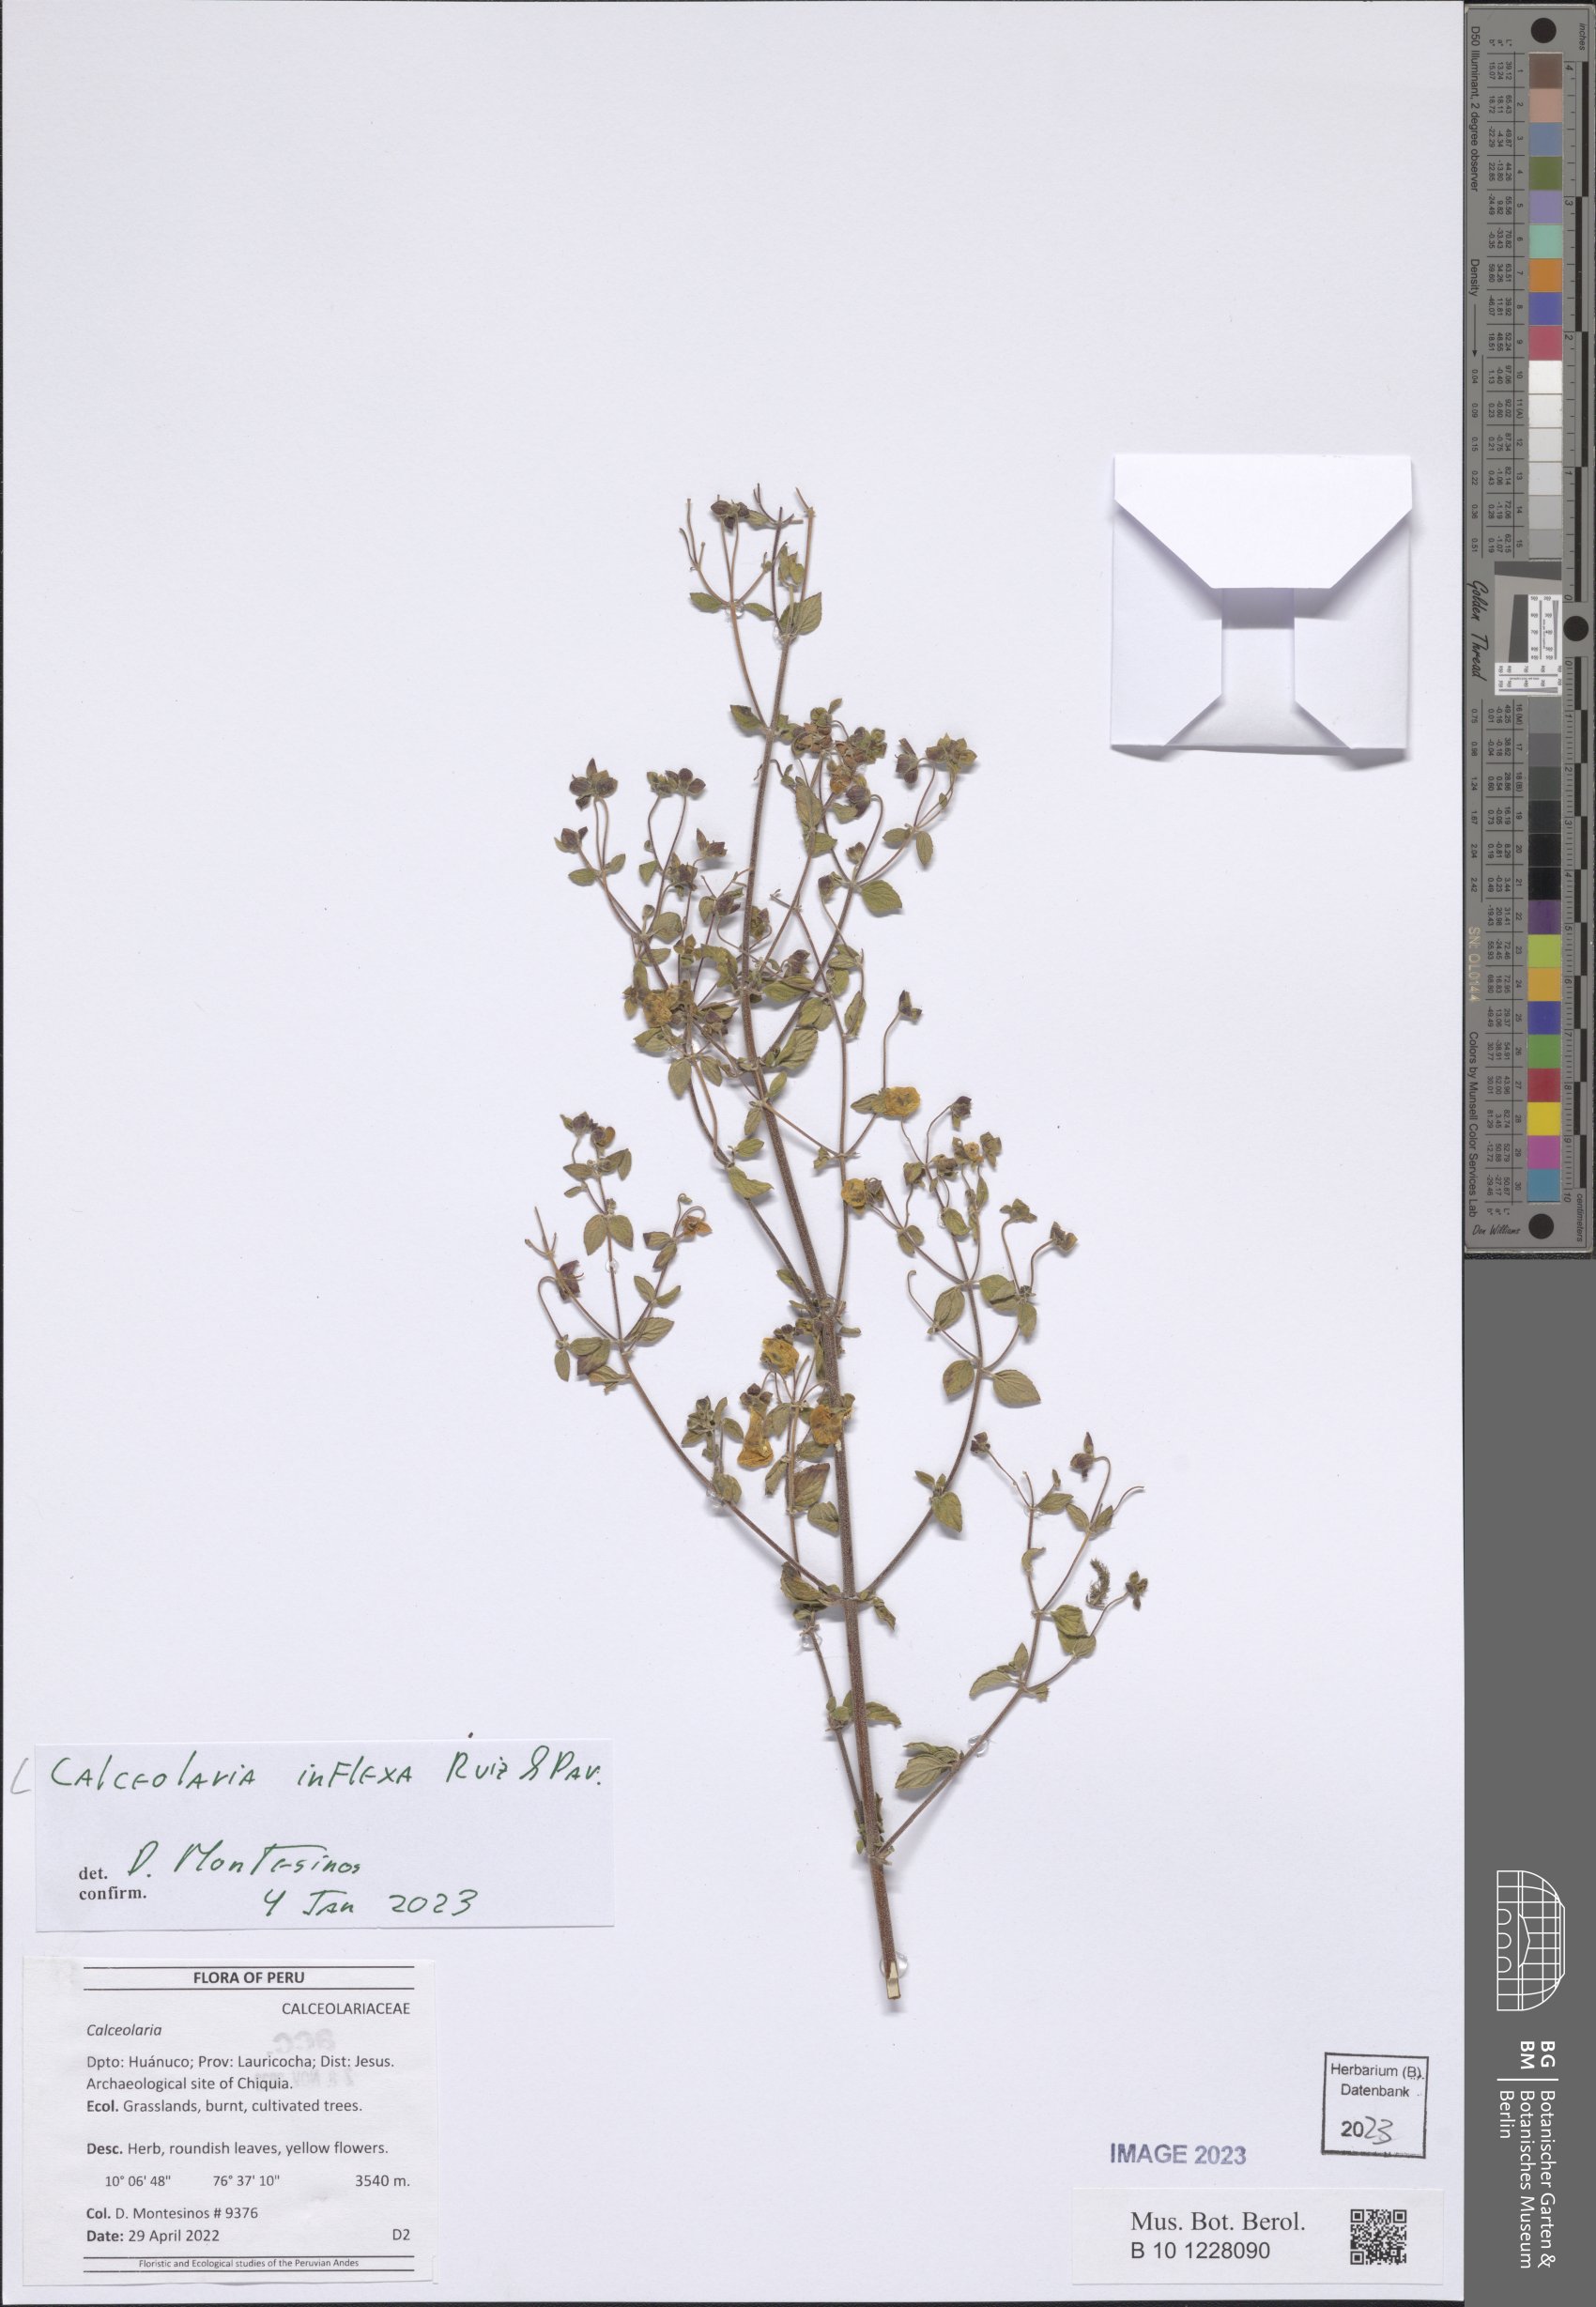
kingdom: Plantae
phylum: Tracheophyta
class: Magnoliopsida
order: Lamiales
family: Calceolariaceae
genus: Calceolaria
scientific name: Calceolaria inflexa
